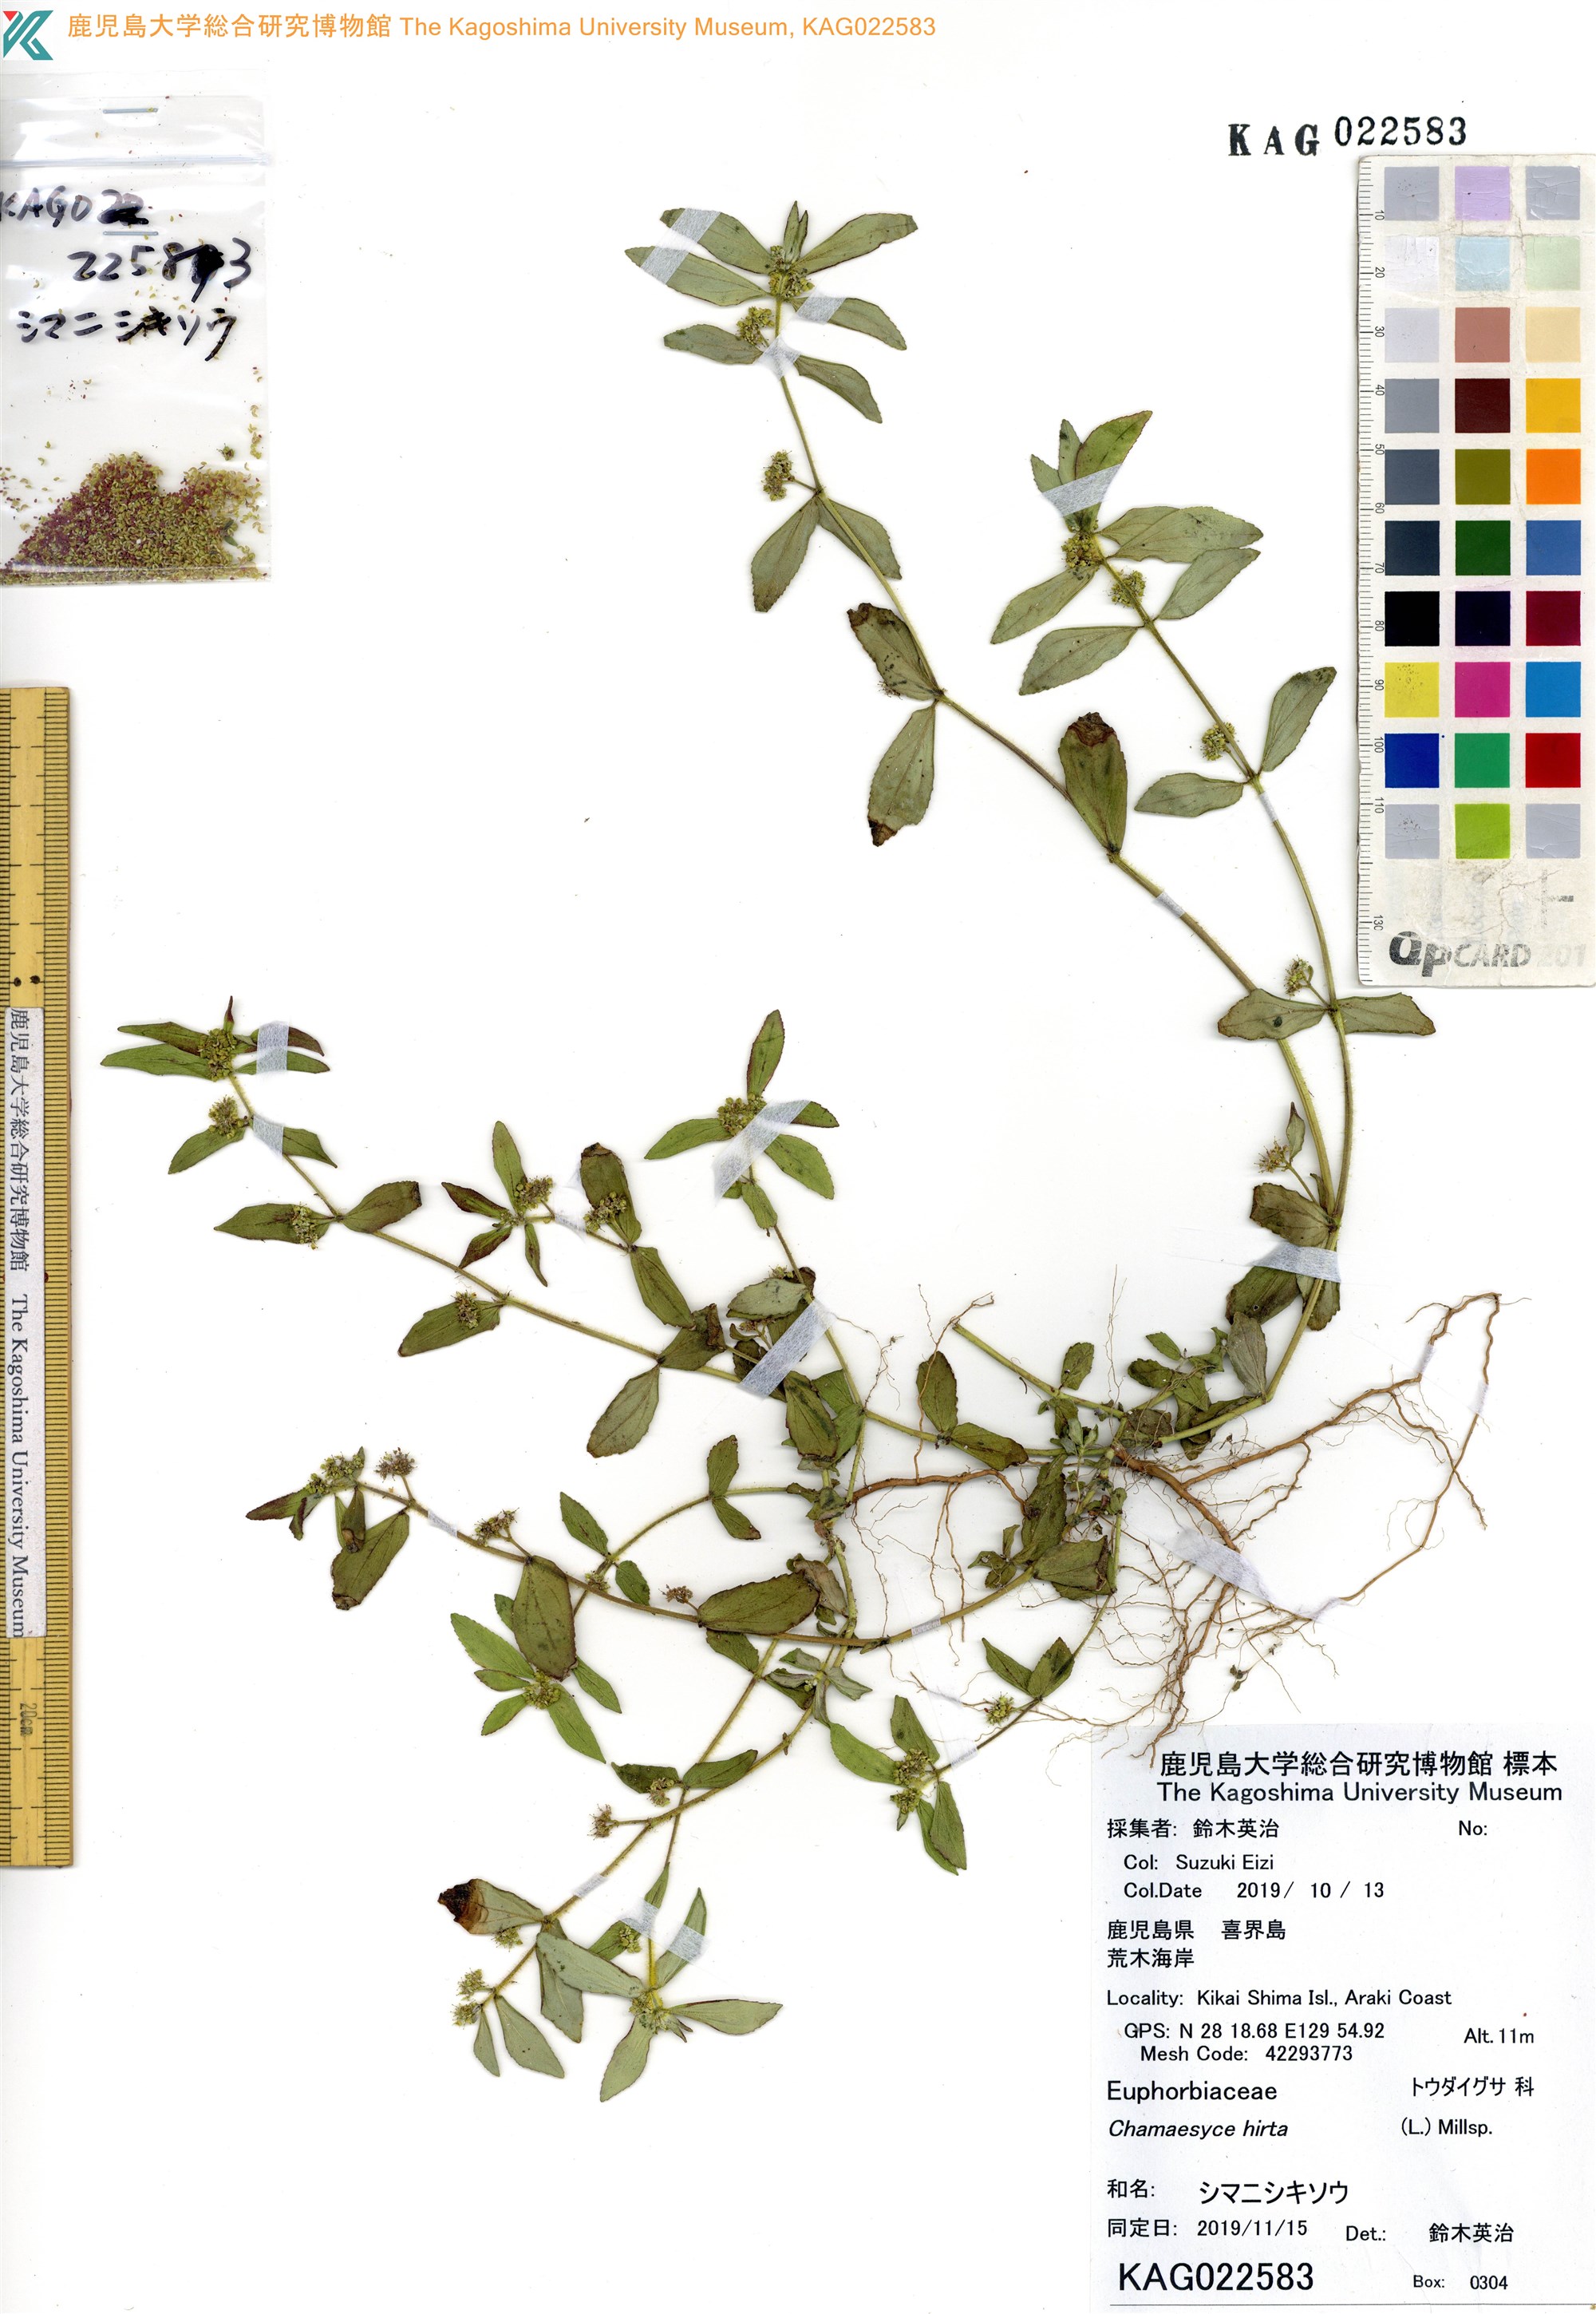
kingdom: Plantae
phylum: Tracheophyta
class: Magnoliopsida
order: Malpighiales
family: Euphorbiaceae
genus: Euphorbia
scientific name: Euphorbia hirta
